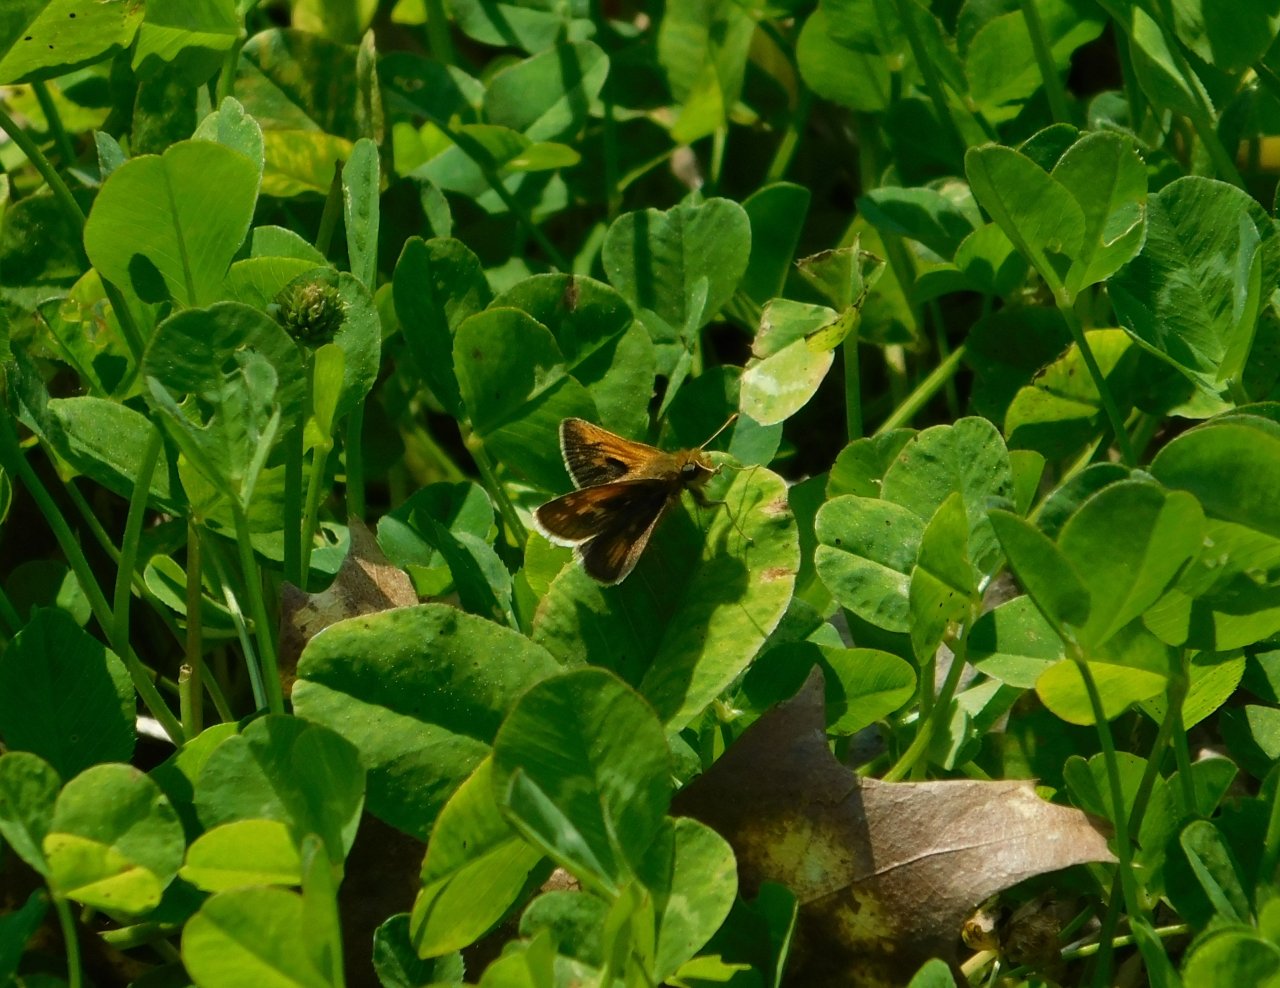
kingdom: Animalia
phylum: Arthropoda
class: Insecta
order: Lepidoptera
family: Hesperiidae
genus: Polites
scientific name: Polites coras
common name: Peck's Skipper
